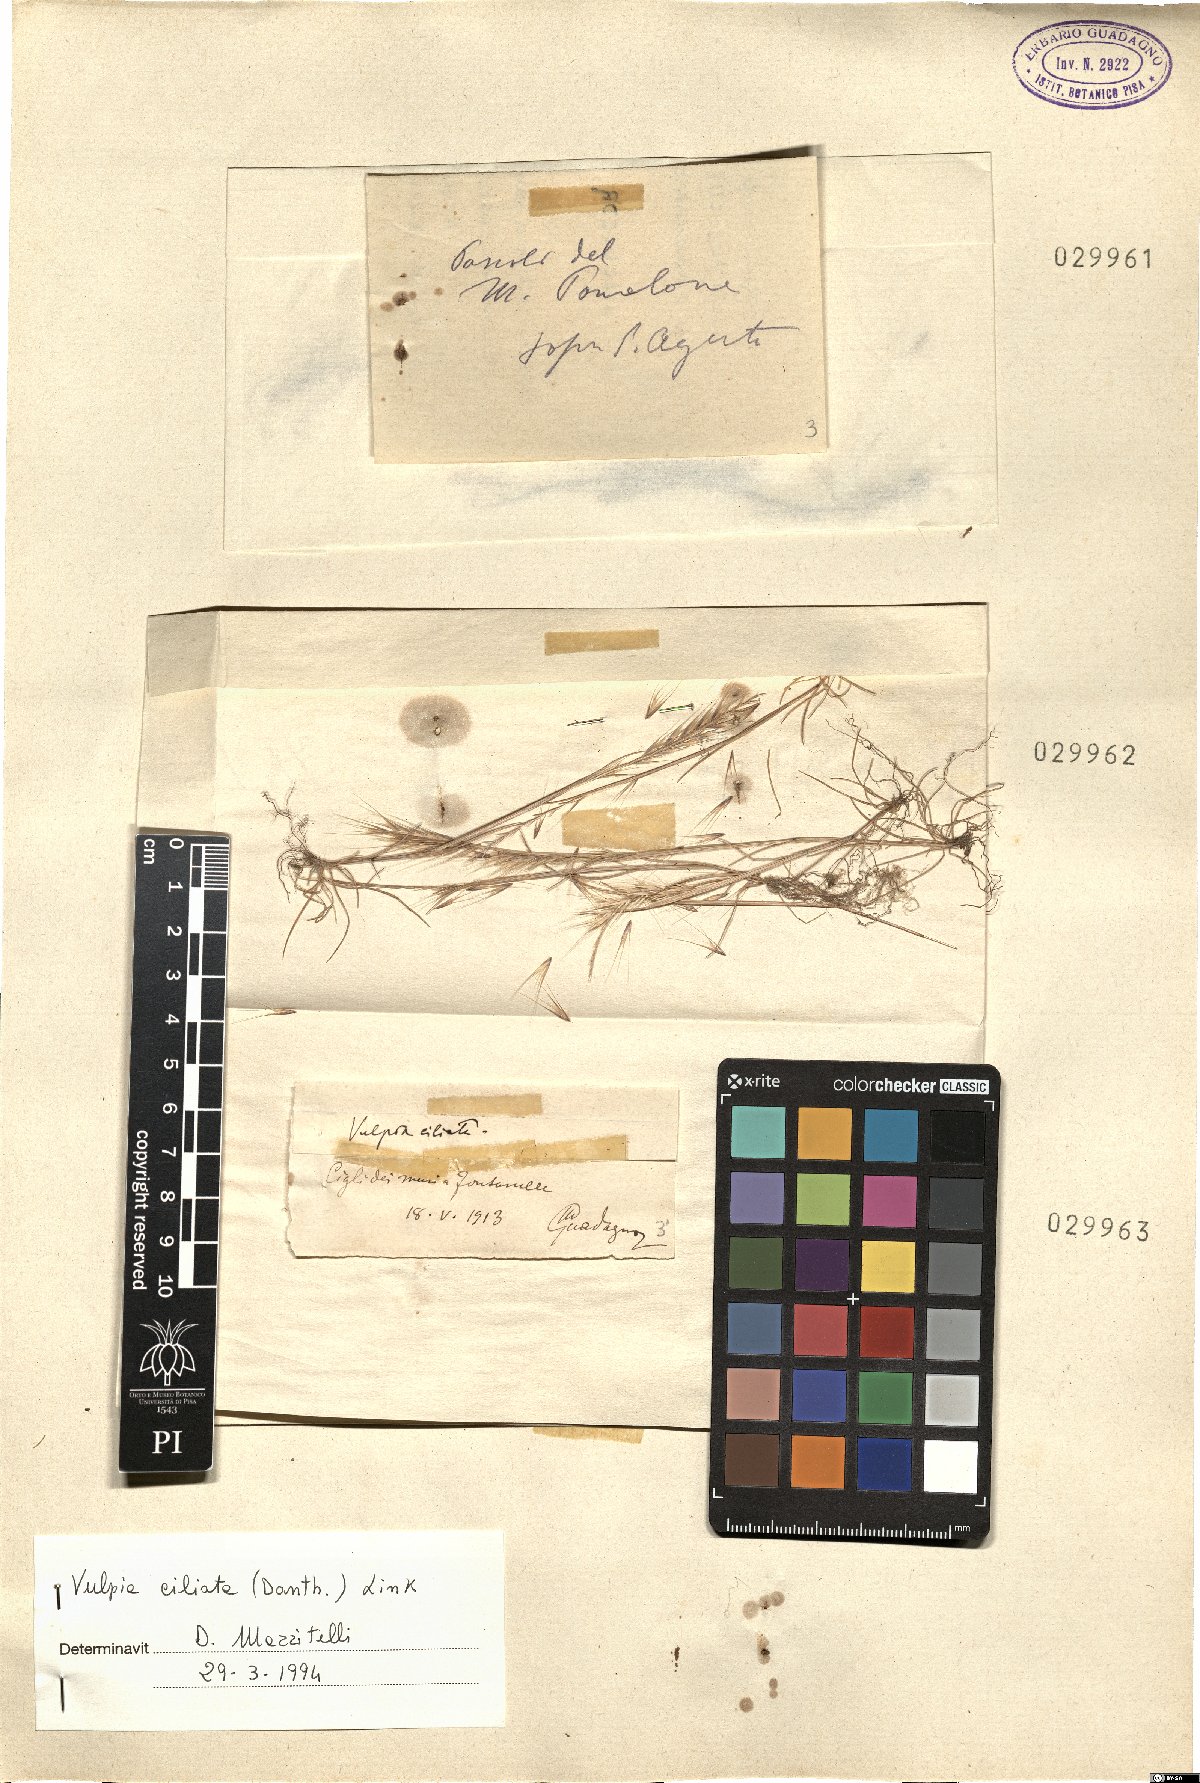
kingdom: Plantae
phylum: Tracheophyta
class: Liliopsida
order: Poales
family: Poaceae
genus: Festuca
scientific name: Festuca ambigua
